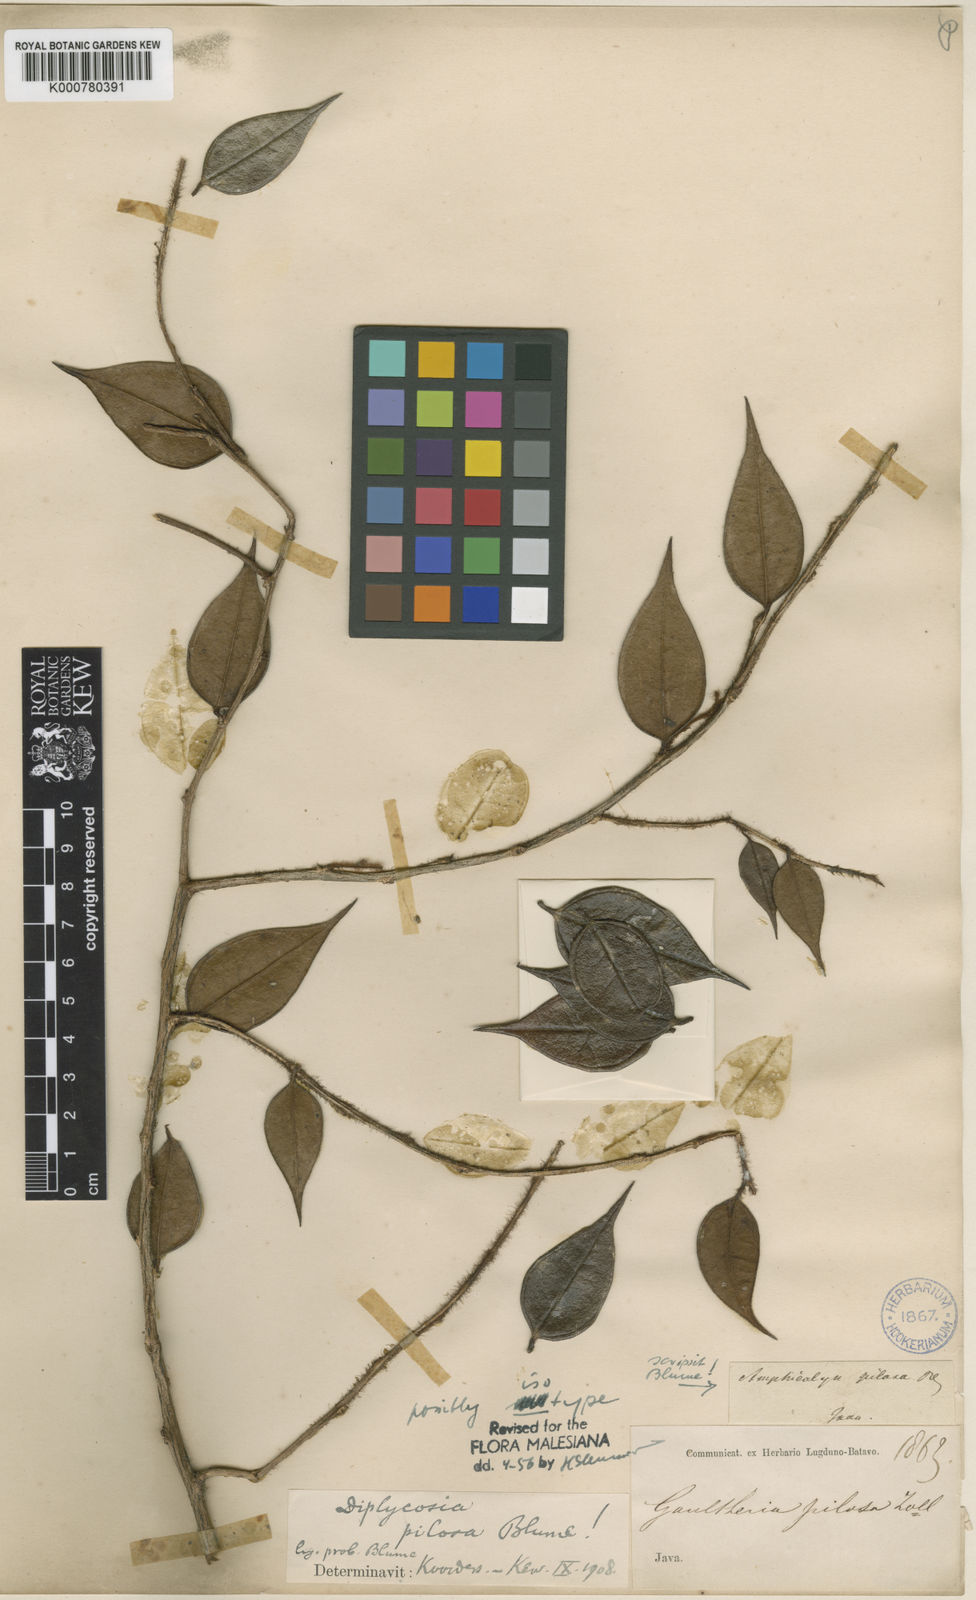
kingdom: Plantae
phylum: Tracheophyta
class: Magnoliopsida
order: Ericales
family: Ericaceae
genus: Gaultheria
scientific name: Gaultheria pilosa
